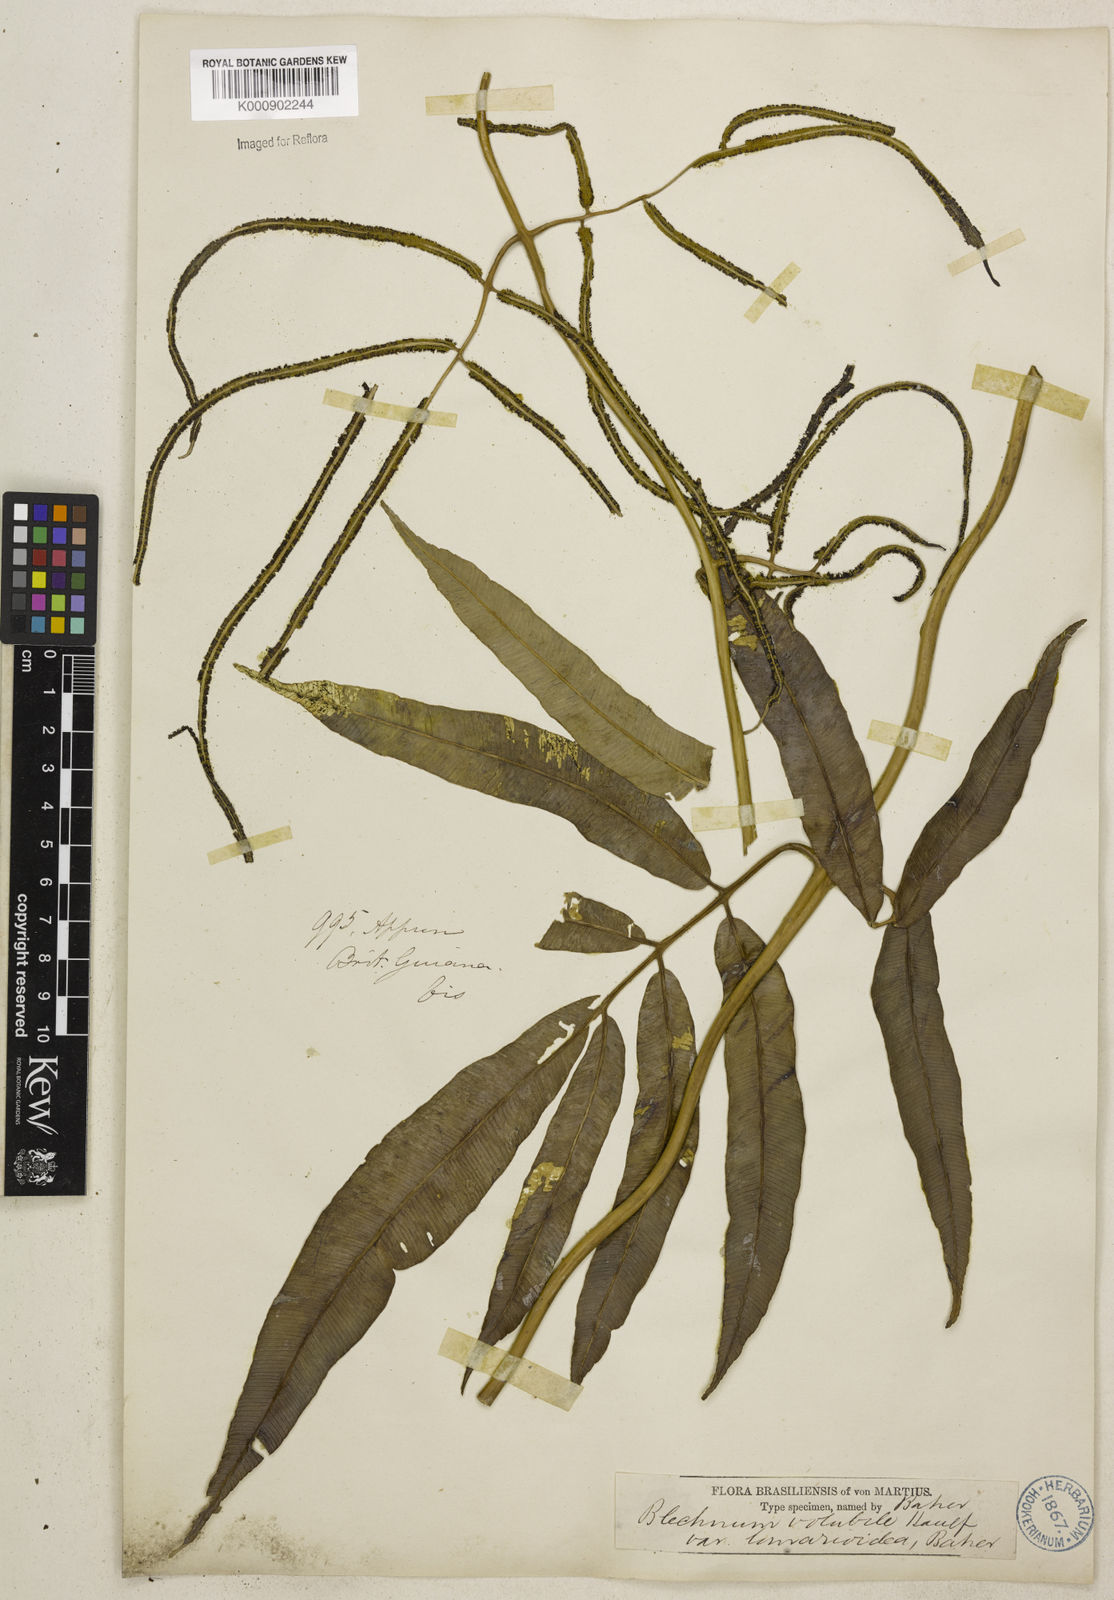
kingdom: Plantae
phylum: Tracheophyta
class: Polypodiopsida
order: Polypodiales
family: Blechnaceae
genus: Salpichlaena
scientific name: Salpichlaena volubilis
